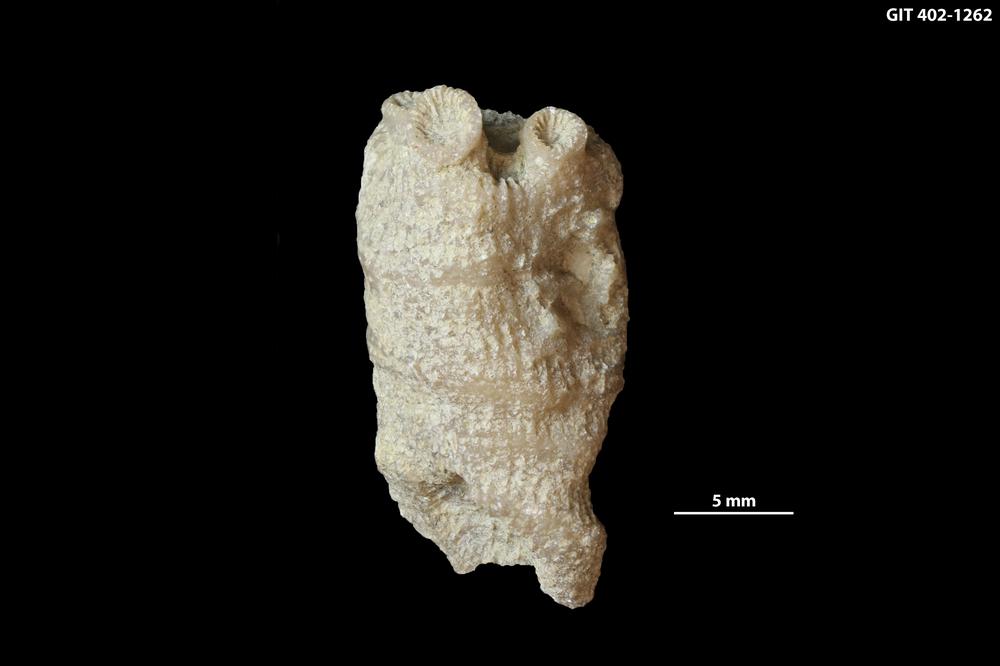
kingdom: Animalia
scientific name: Animalia
